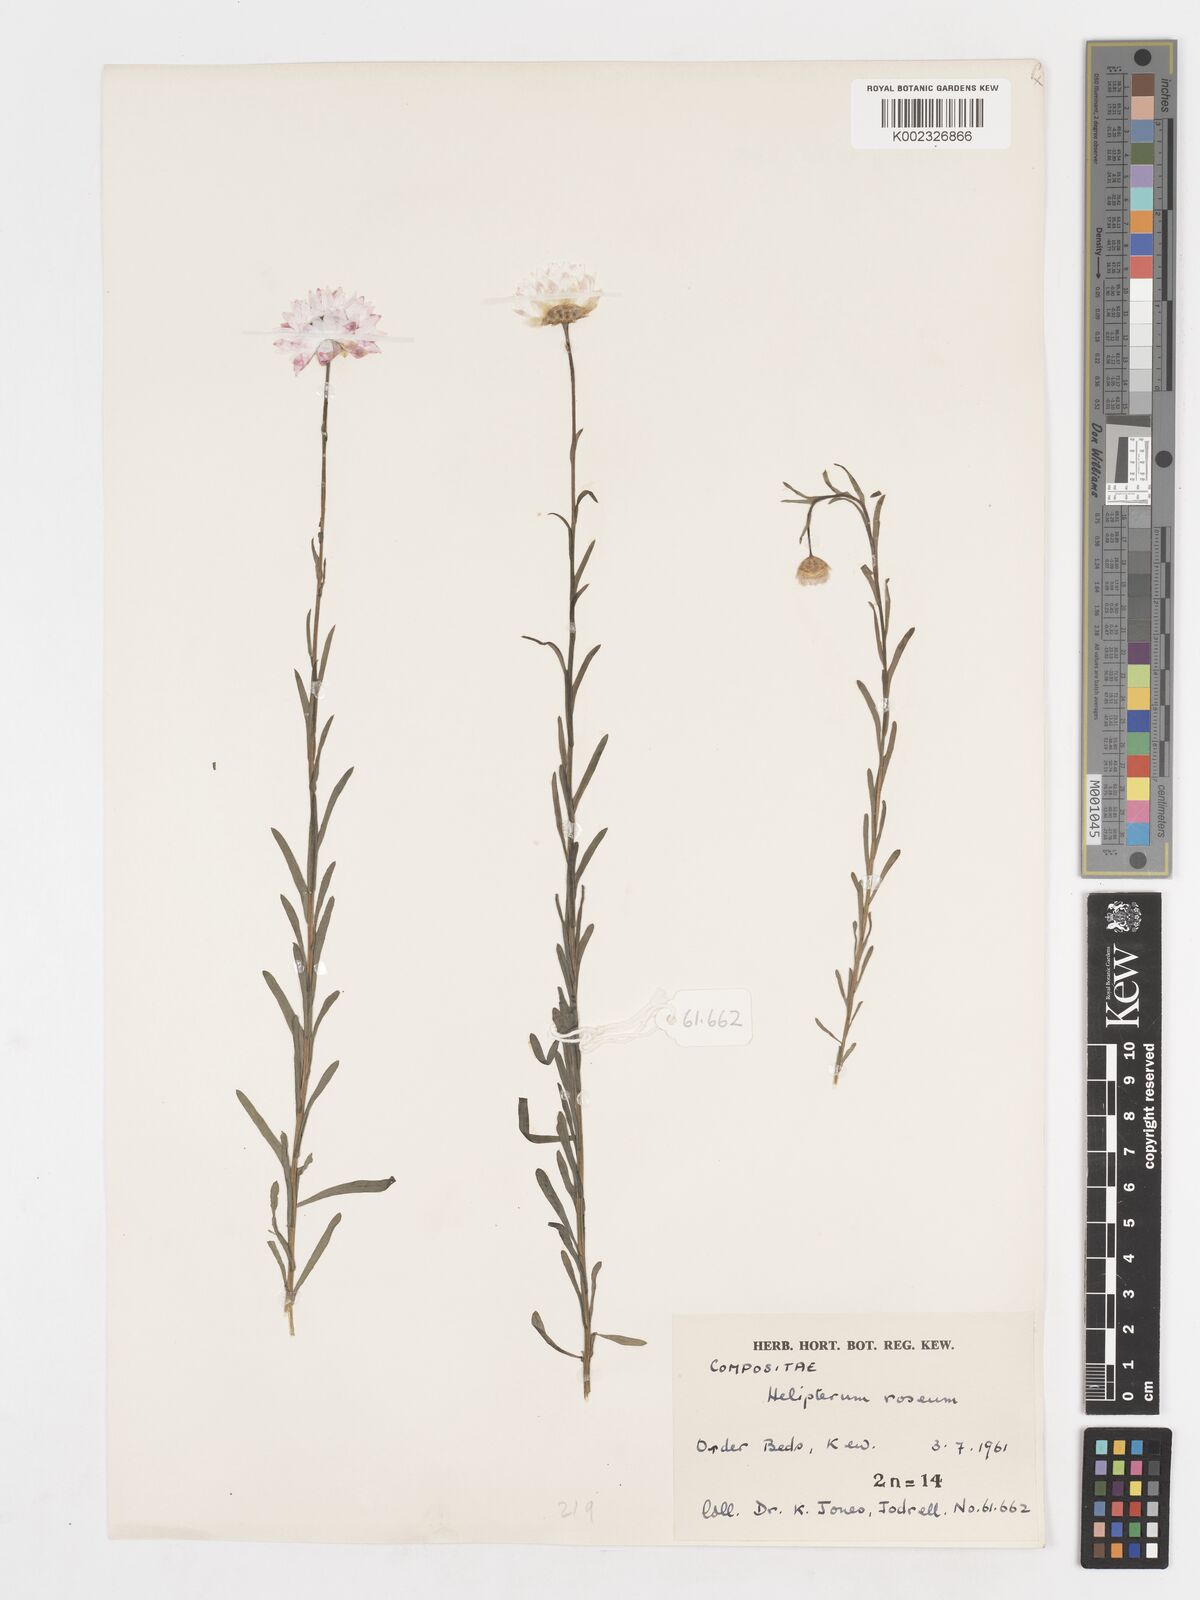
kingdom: Plantae
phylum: Tracheophyta
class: Magnoliopsida
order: Asterales
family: Asteraceae
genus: Syncarpha
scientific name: Syncarpha
